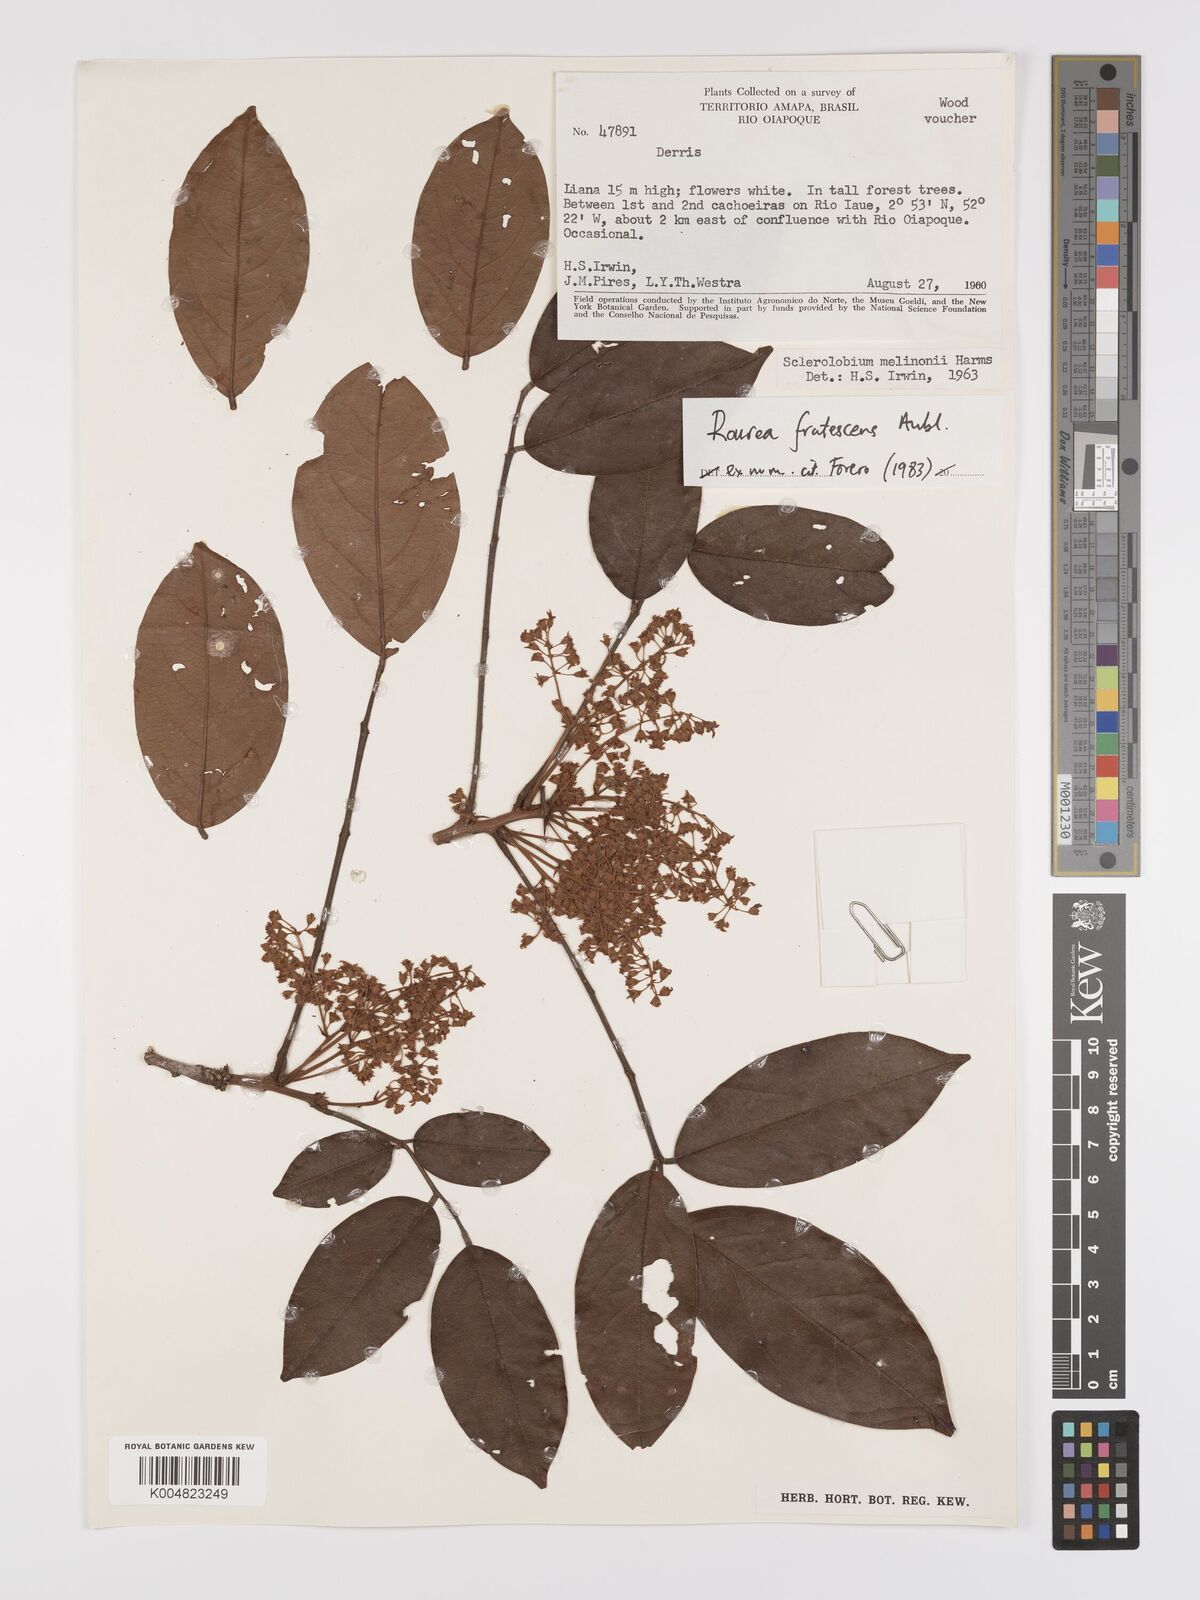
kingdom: Plantae
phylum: Tracheophyta
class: Magnoliopsida
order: Oxalidales
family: Connaraceae
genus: Rourea
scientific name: Rourea frutescens
